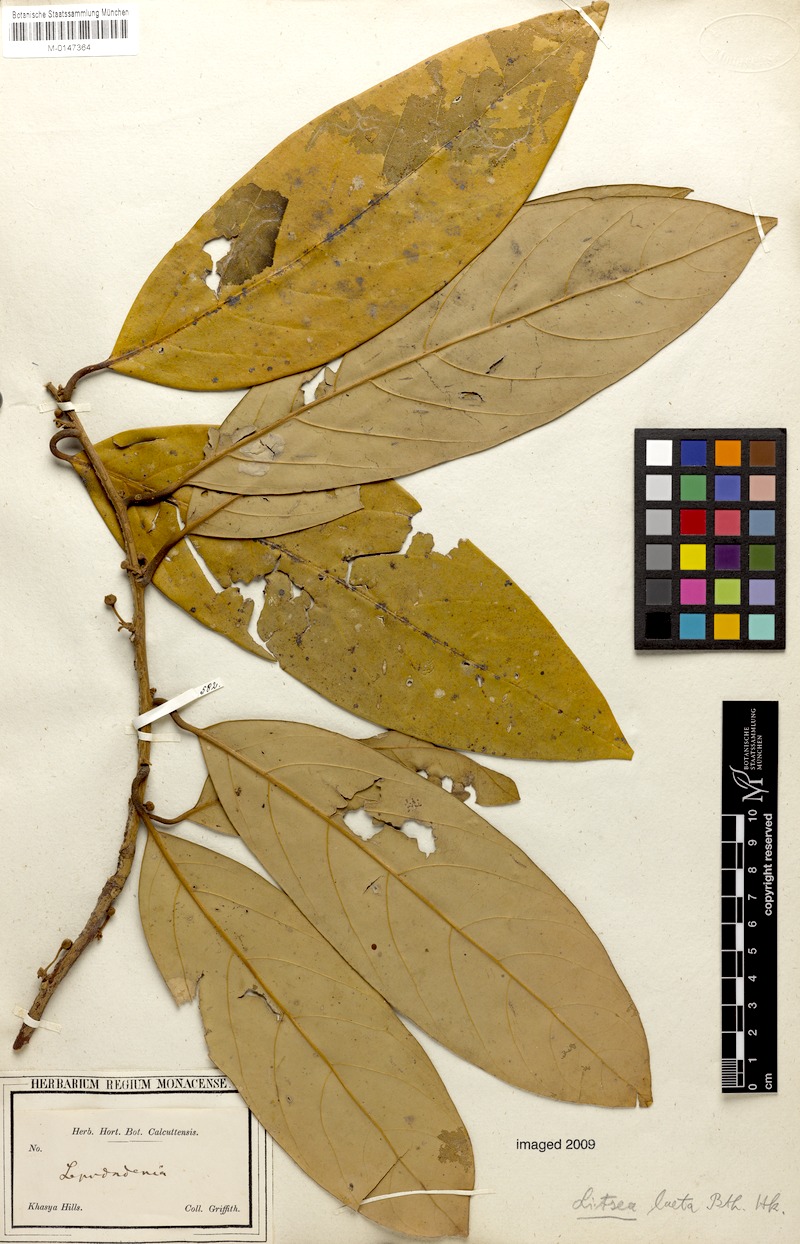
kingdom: Plantae
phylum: Tracheophyta
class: Magnoliopsida
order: Laurales
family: Lauraceae
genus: Litsea
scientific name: Litsea laeta
